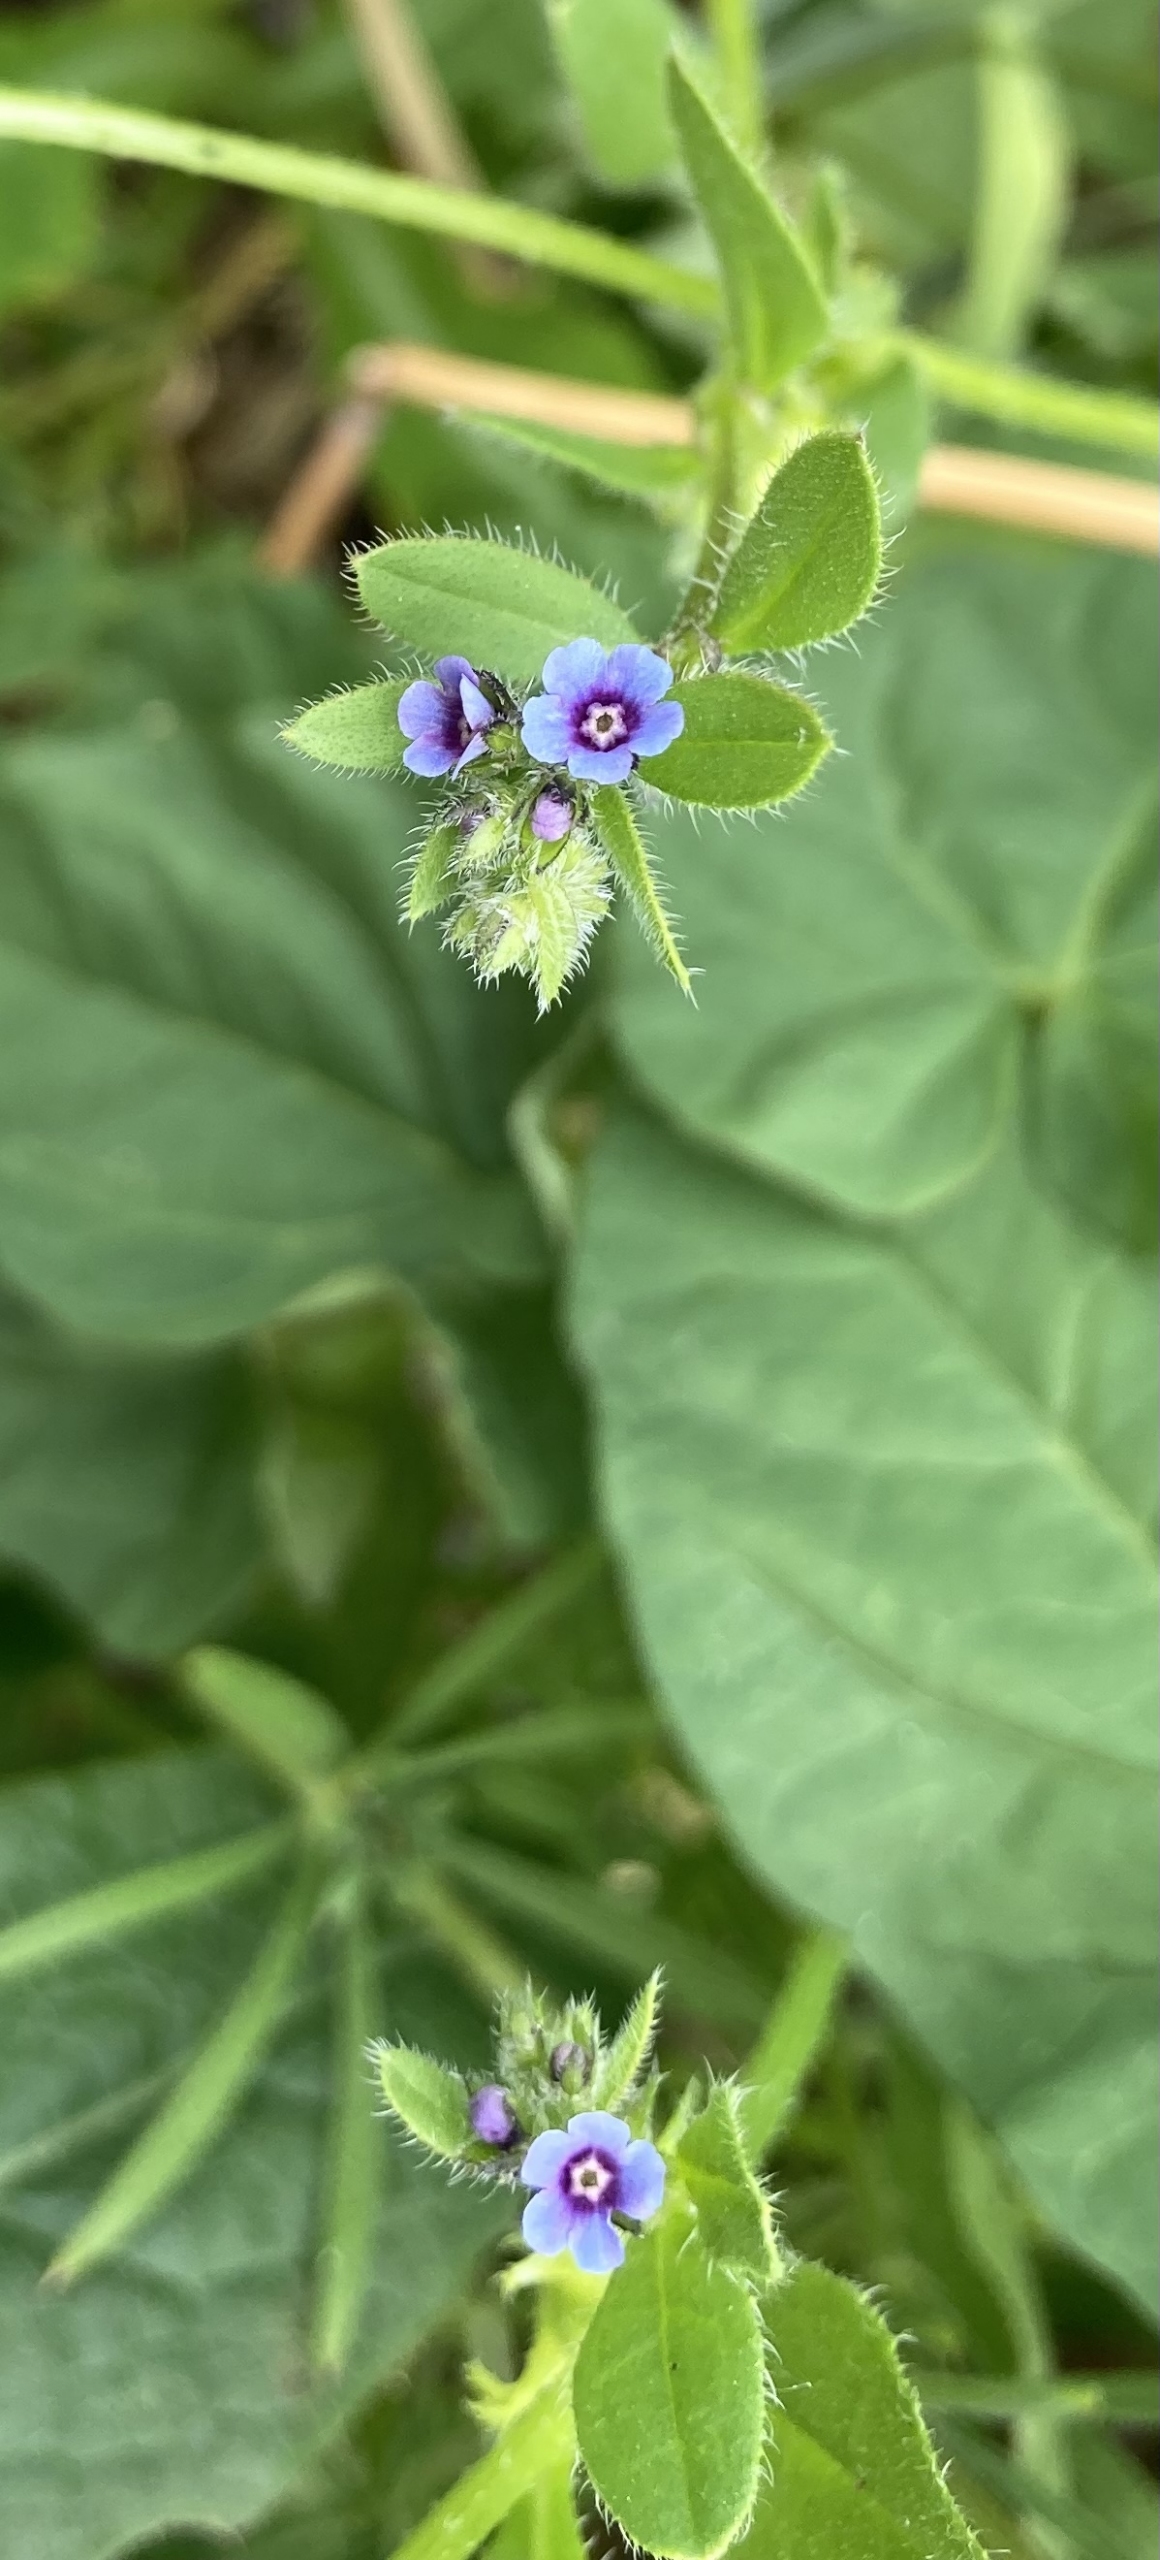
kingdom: Plantae
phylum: Tracheophyta
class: Magnoliopsida
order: Boraginales
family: Boraginaceae
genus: Asperugo
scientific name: Asperugo procumbens
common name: River
